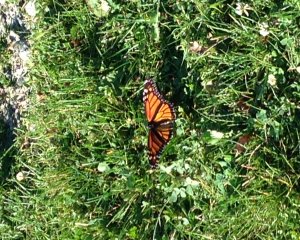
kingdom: Animalia
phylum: Arthropoda
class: Insecta
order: Lepidoptera
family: Nymphalidae
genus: Danaus
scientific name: Danaus plexippus
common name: Monarch
